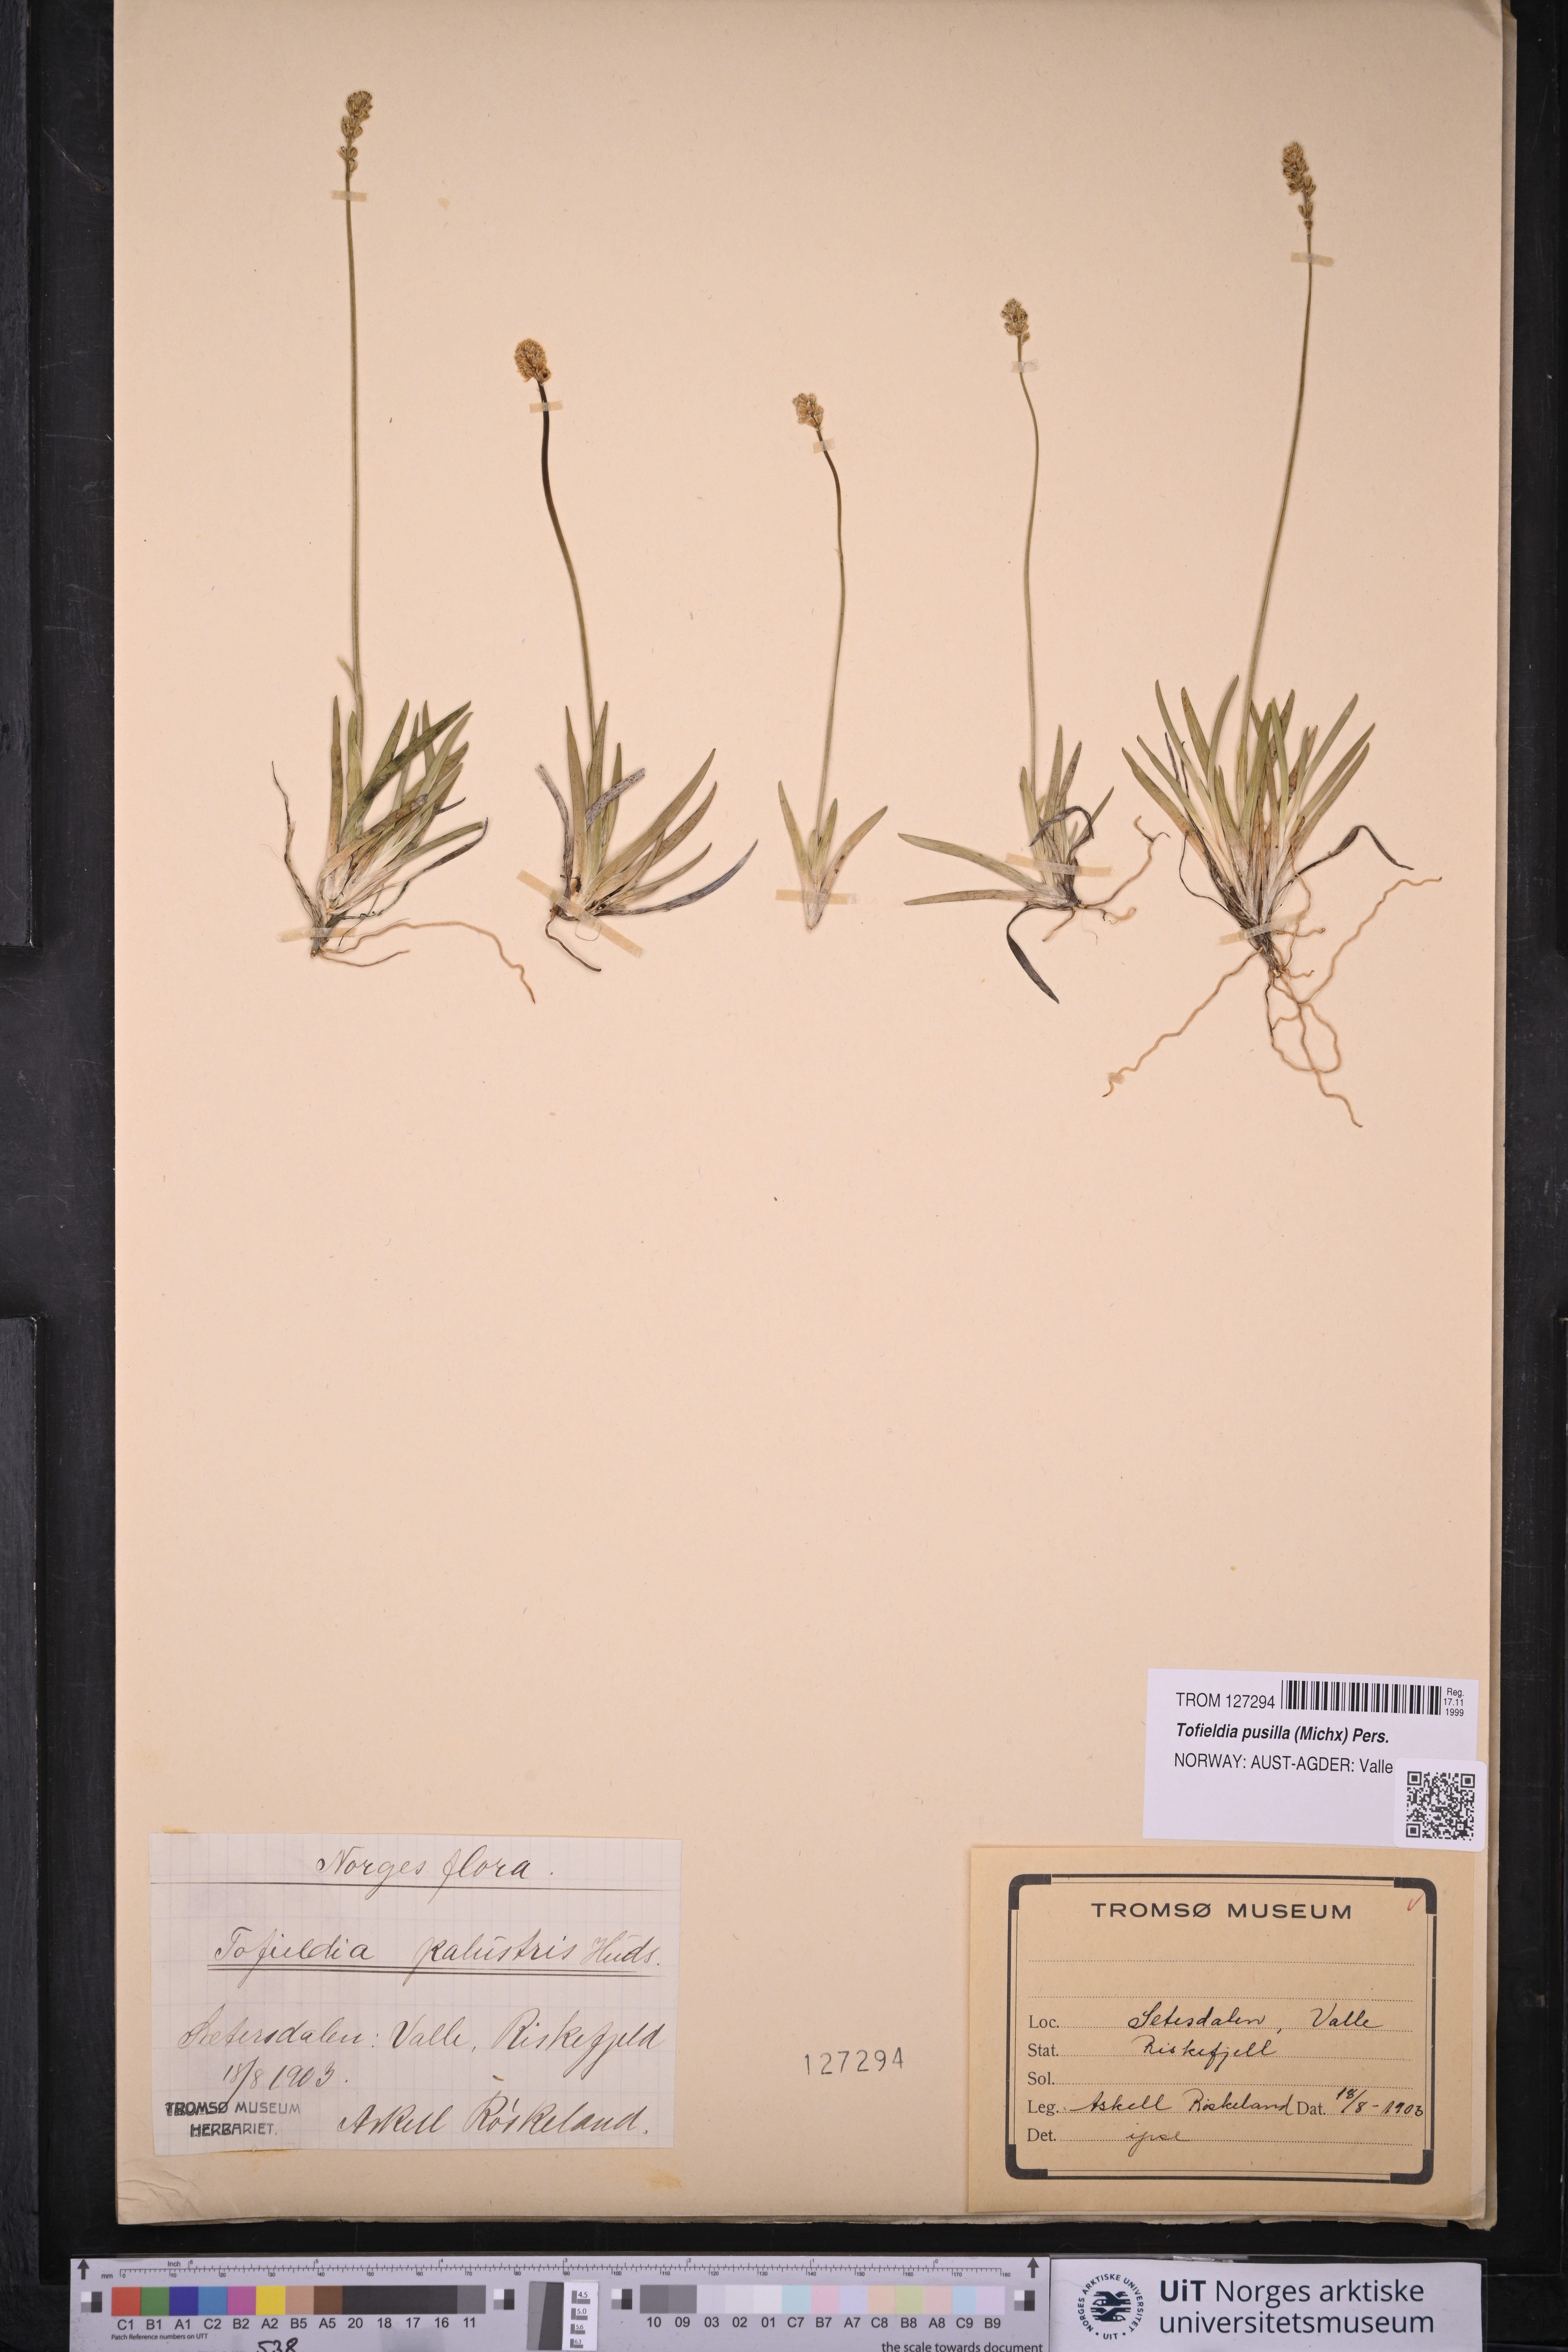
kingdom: Plantae
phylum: Tracheophyta
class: Liliopsida
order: Alismatales
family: Tofieldiaceae
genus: Tofieldia
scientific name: Tofieldia pusilla
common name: Scottish false asphodel
